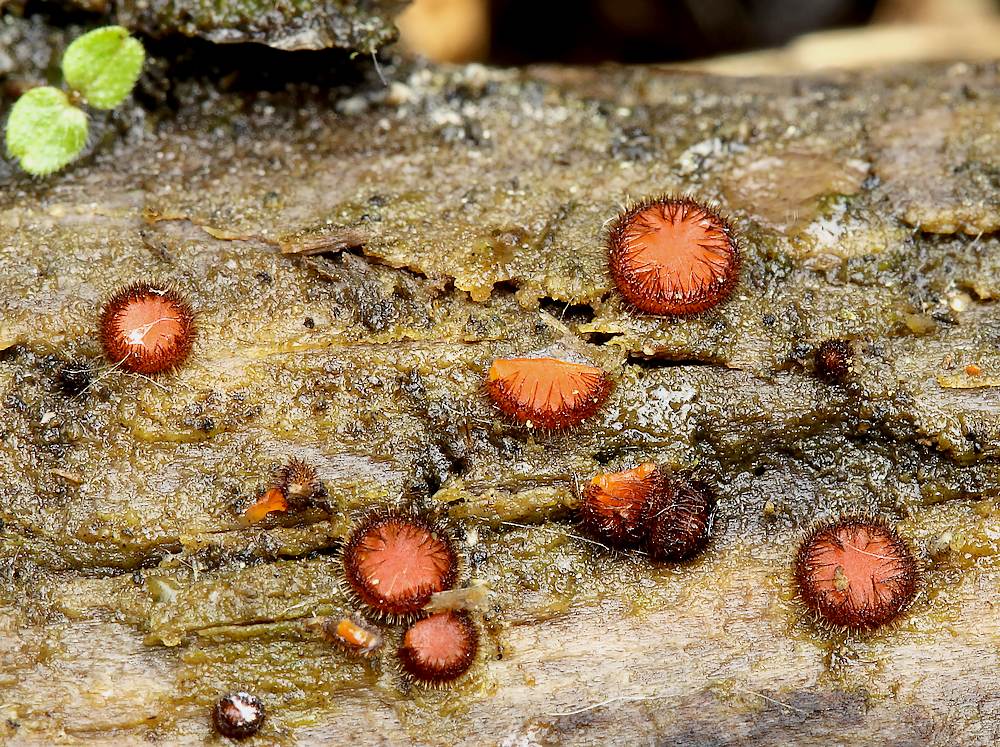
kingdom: Fungi
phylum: Ascomycota
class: Pezizomycetes
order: Pezizales
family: Pyronemataceae
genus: Scutellinia
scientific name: Scutellinia scutellata
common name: frynset skjoldbæger
